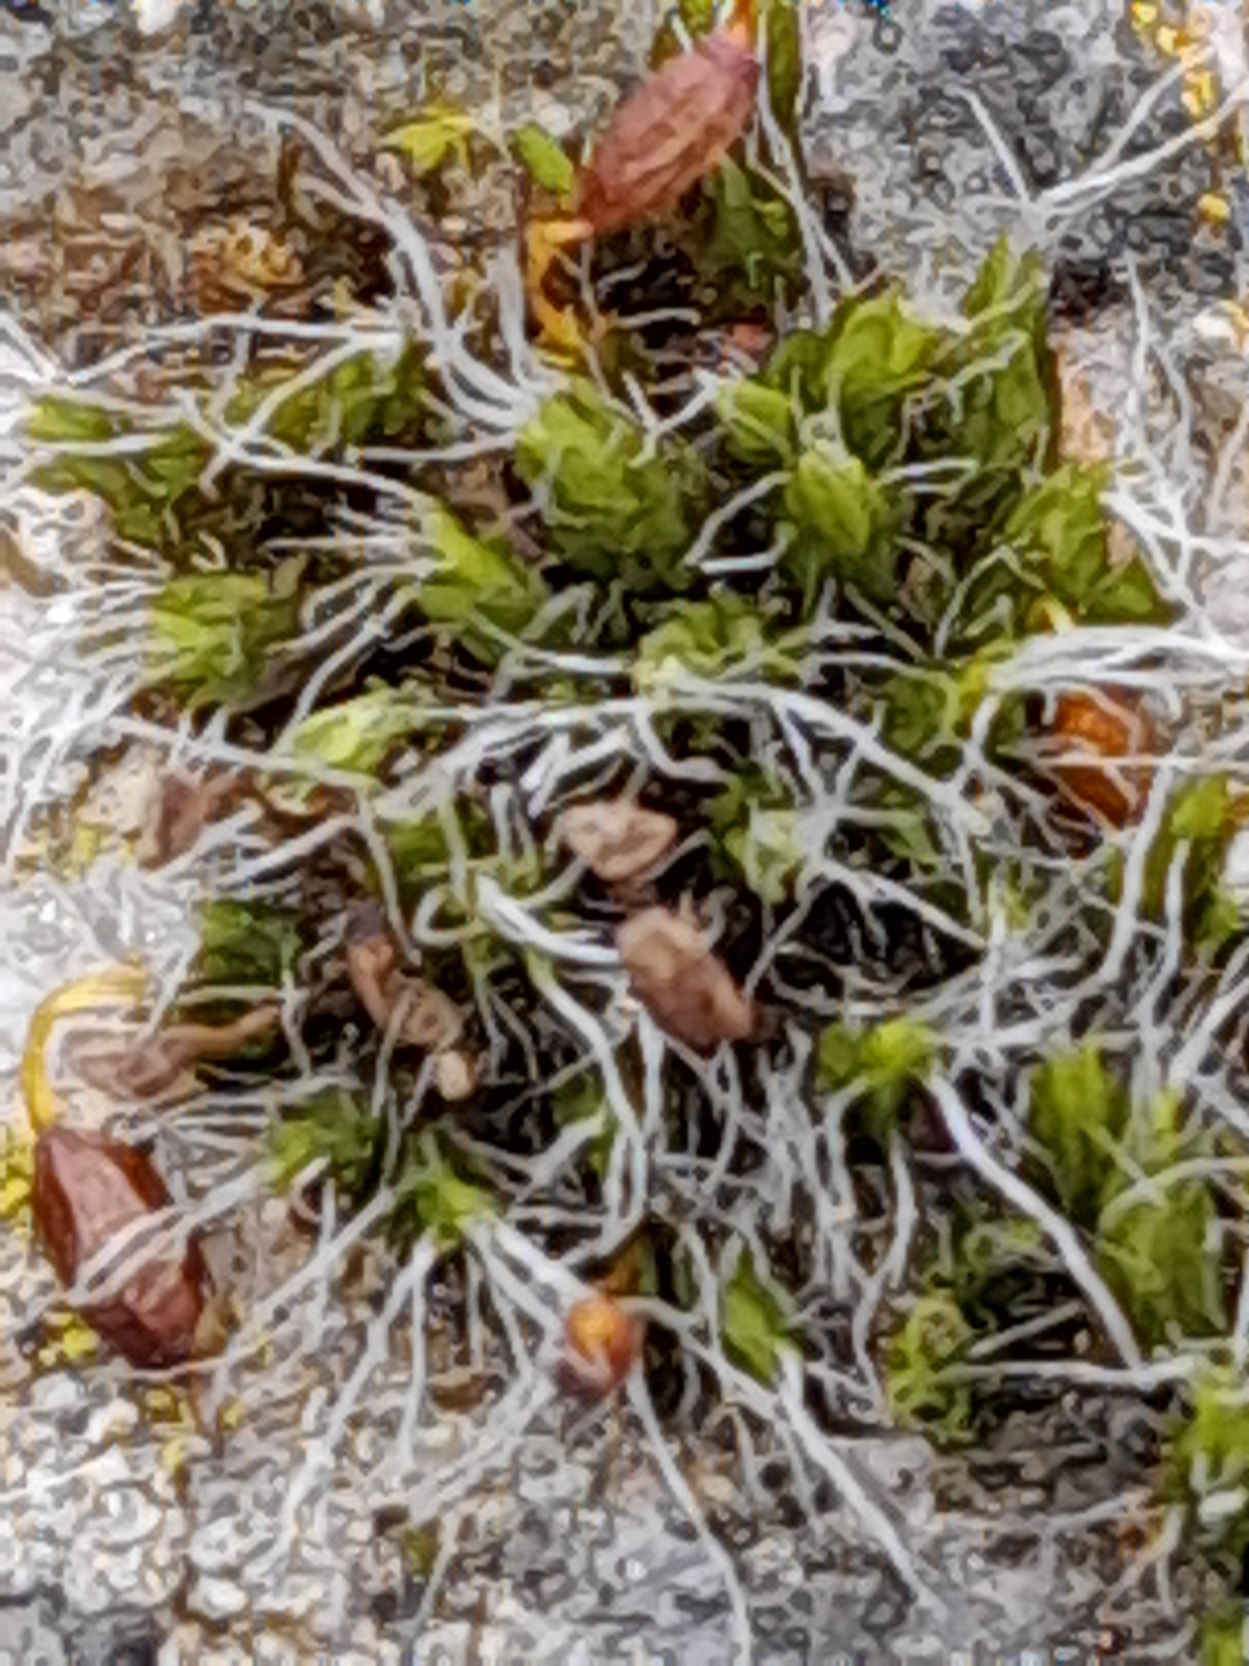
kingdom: Plantae
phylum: Bryophyta
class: Bryopsida
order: Grimmiales
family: Grimmiaceae
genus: Grimmia
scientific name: Grimmia pulvinata
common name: Pude-gråmos
